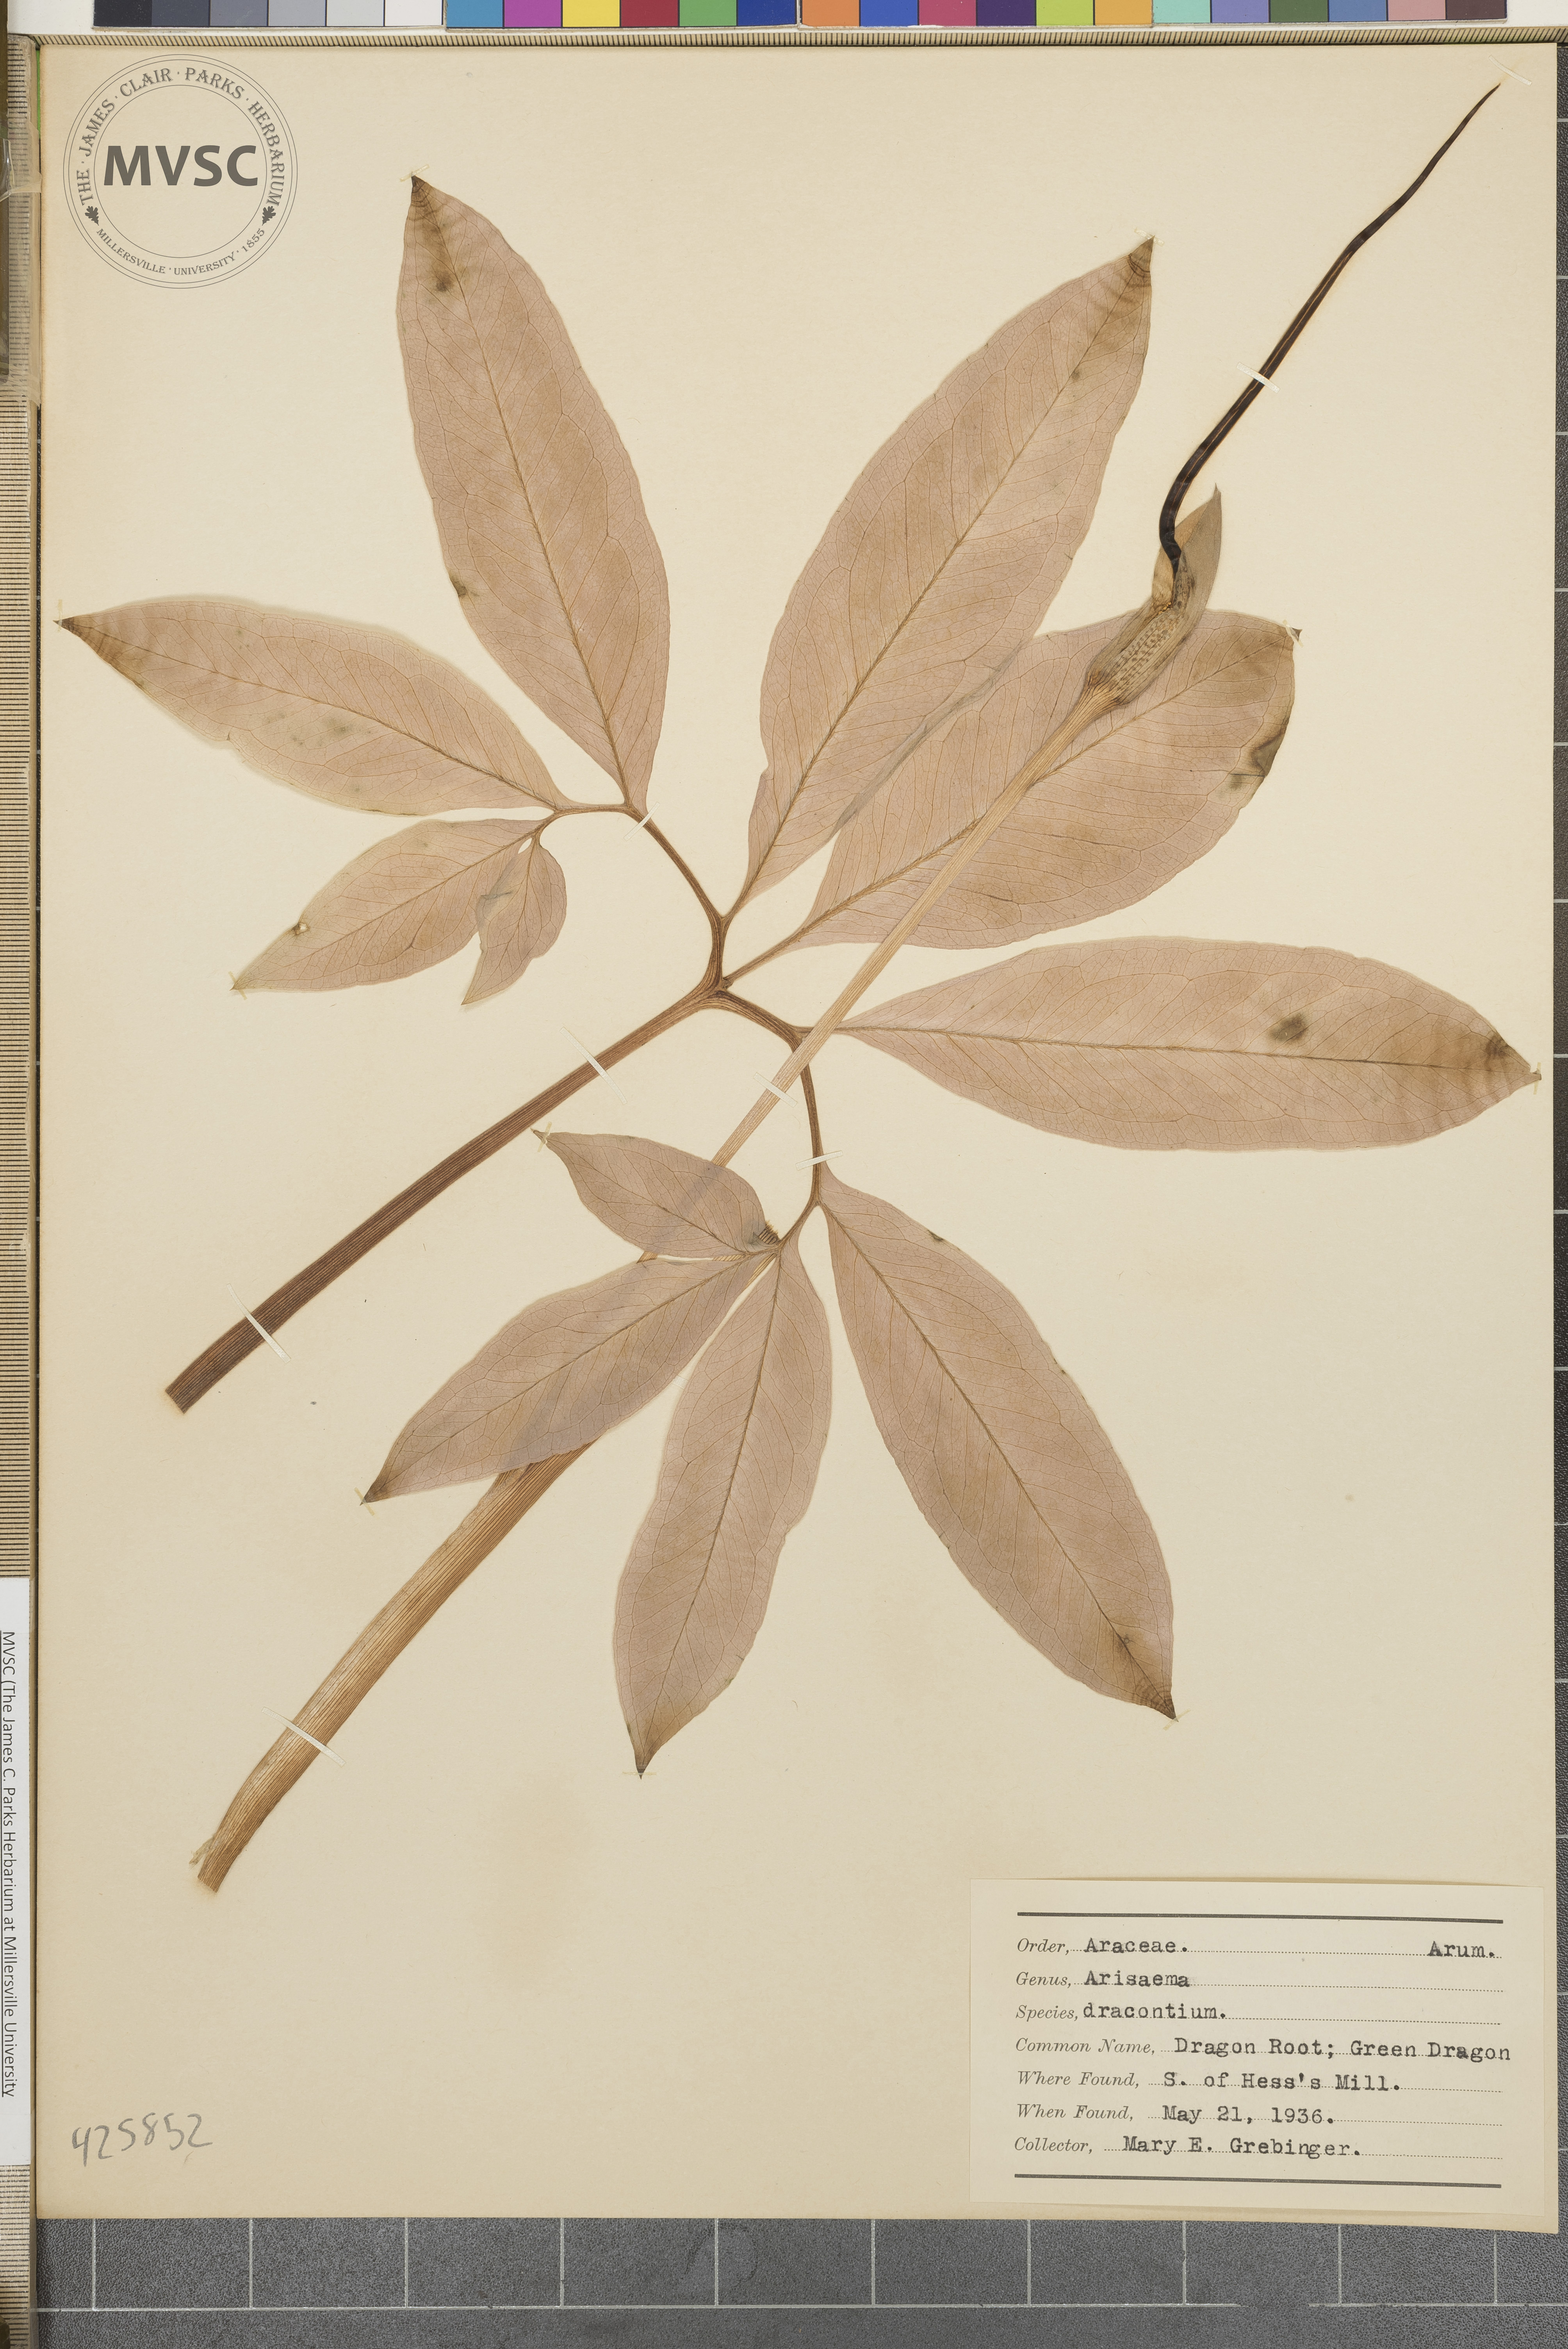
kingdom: Plantae
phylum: Tracheophyta
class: Liliopsida
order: Alismatales
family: Araceae
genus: Arisaema
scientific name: Arisaema dracontium
